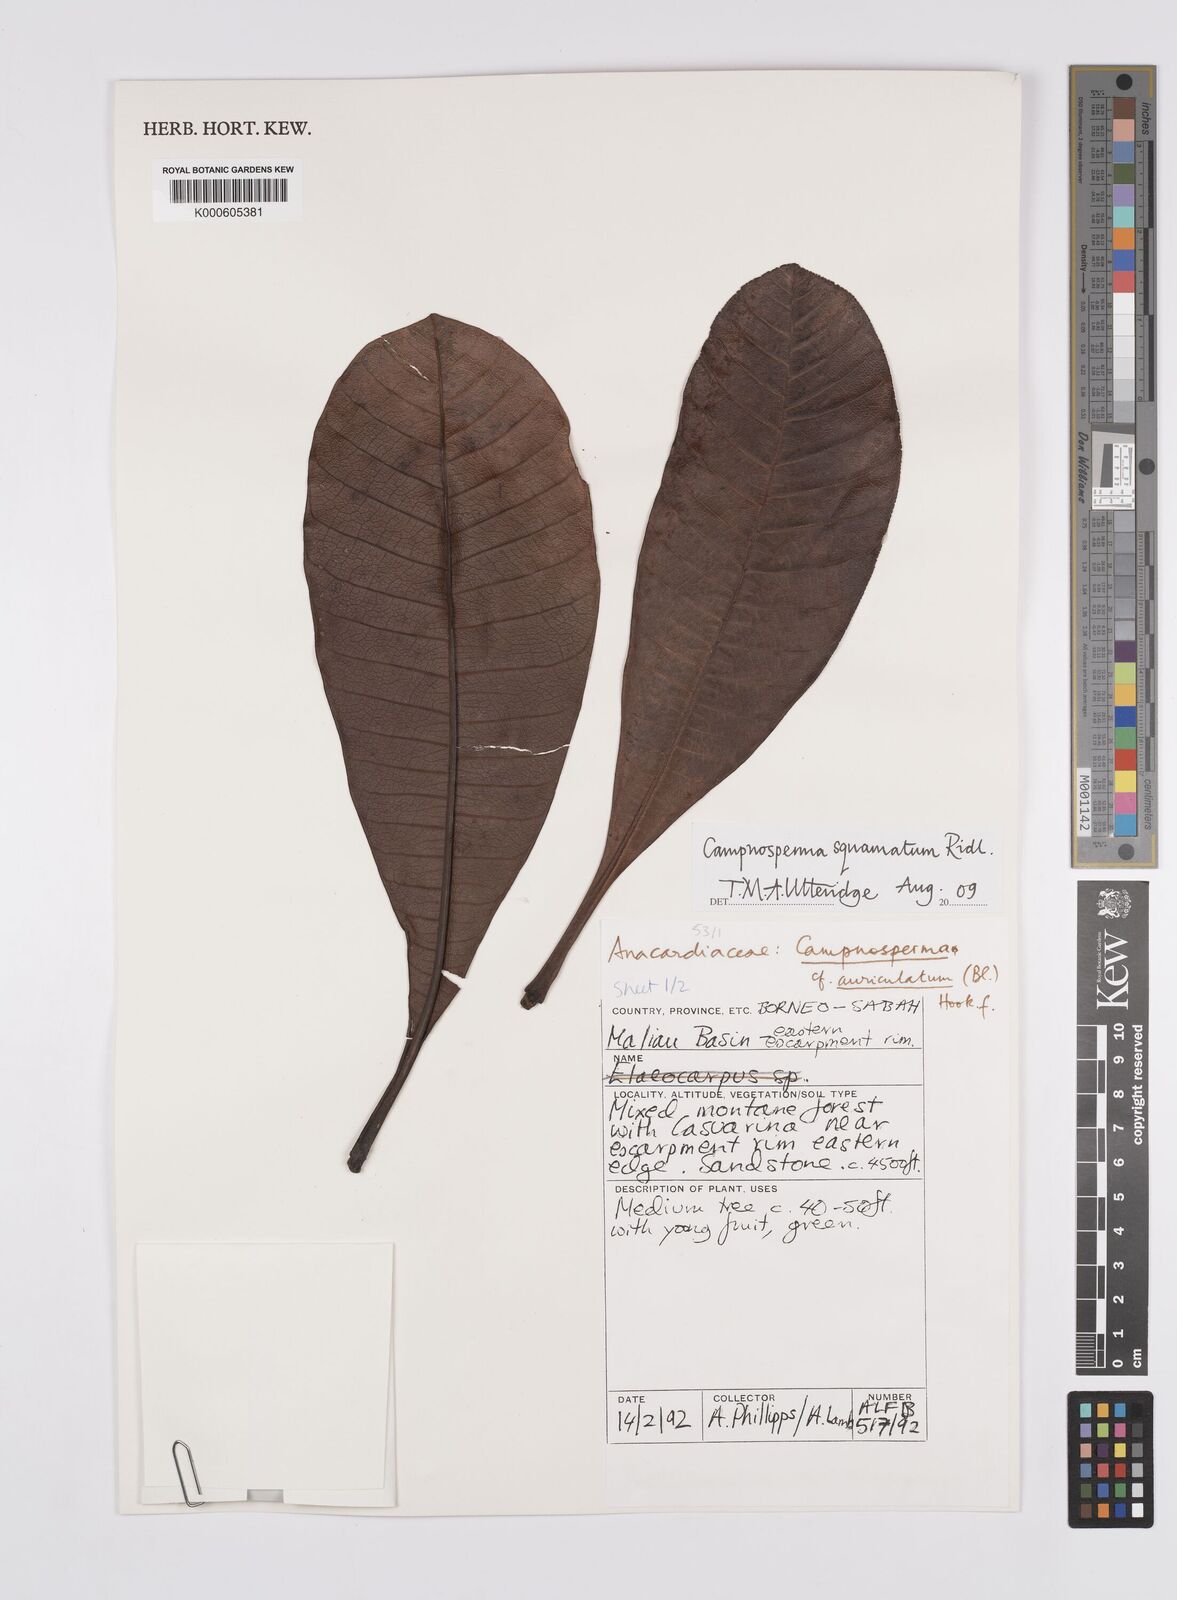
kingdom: Plantae
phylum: Tracheophyta
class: Magnoliopsida
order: Sapindales
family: Anacardiaceae
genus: Campnosperma
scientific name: Campnosperma
